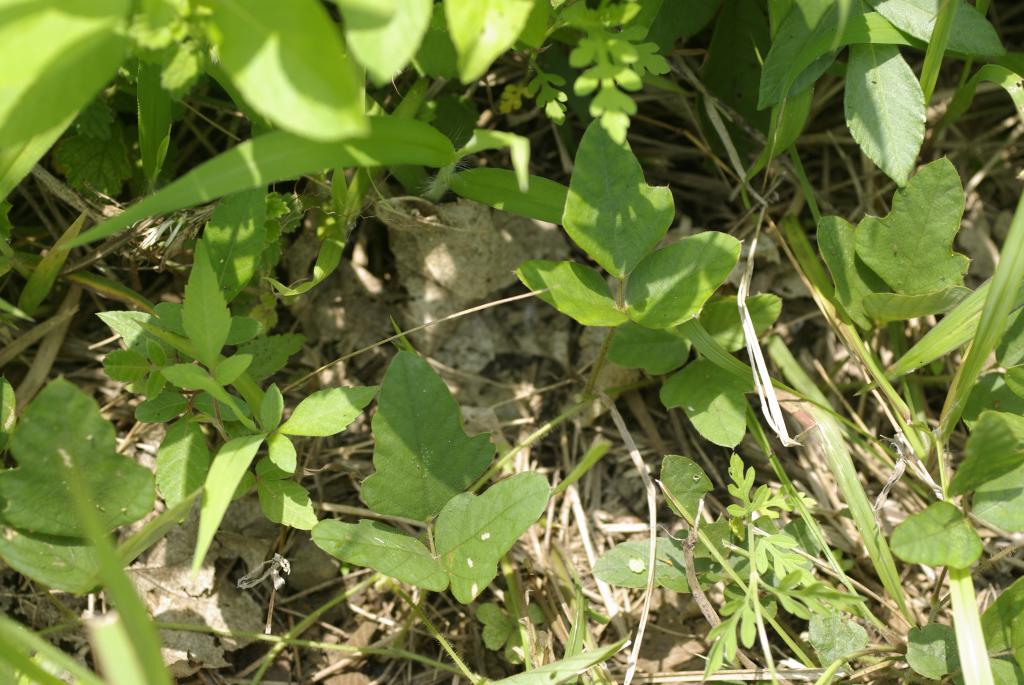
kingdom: Plantae
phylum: Tracheophyta
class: Magnoliopsida
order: Fabales
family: Fabaceae
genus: Neustanthus
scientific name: Neustanthus phaseoloides
